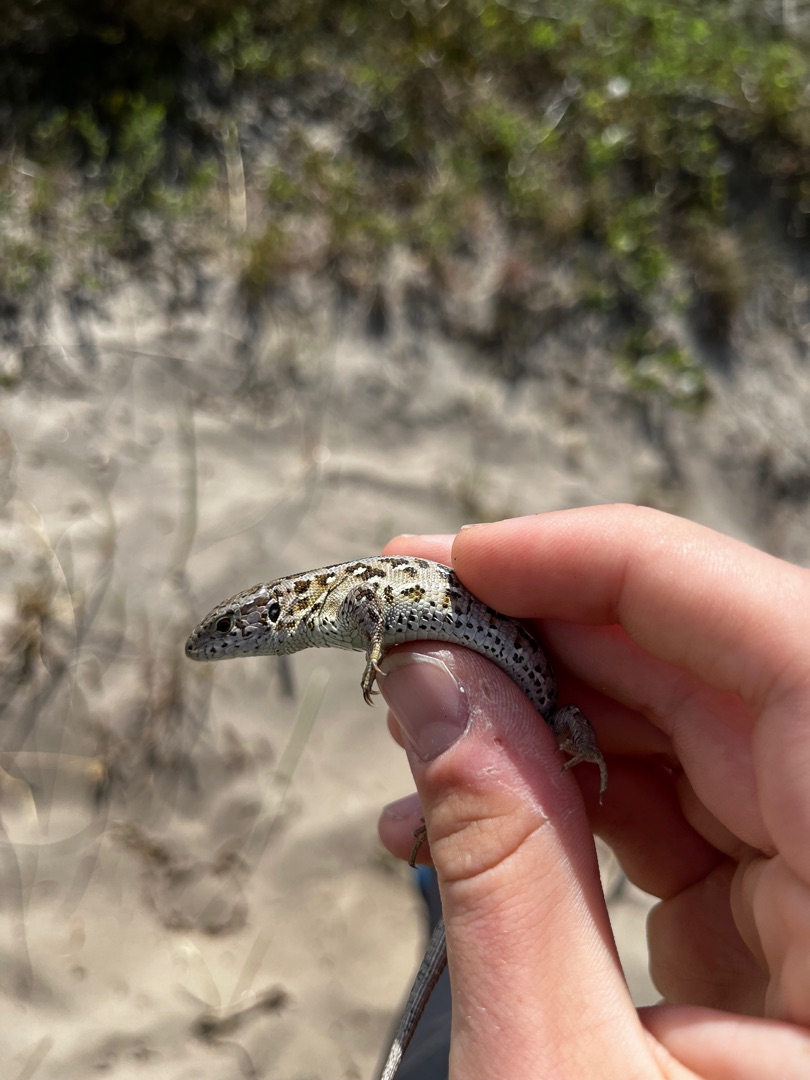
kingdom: Animalia
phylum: Chordata
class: Squamata
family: Lacertidae
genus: Lacerta
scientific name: Lacerta agilis
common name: Markfirben
